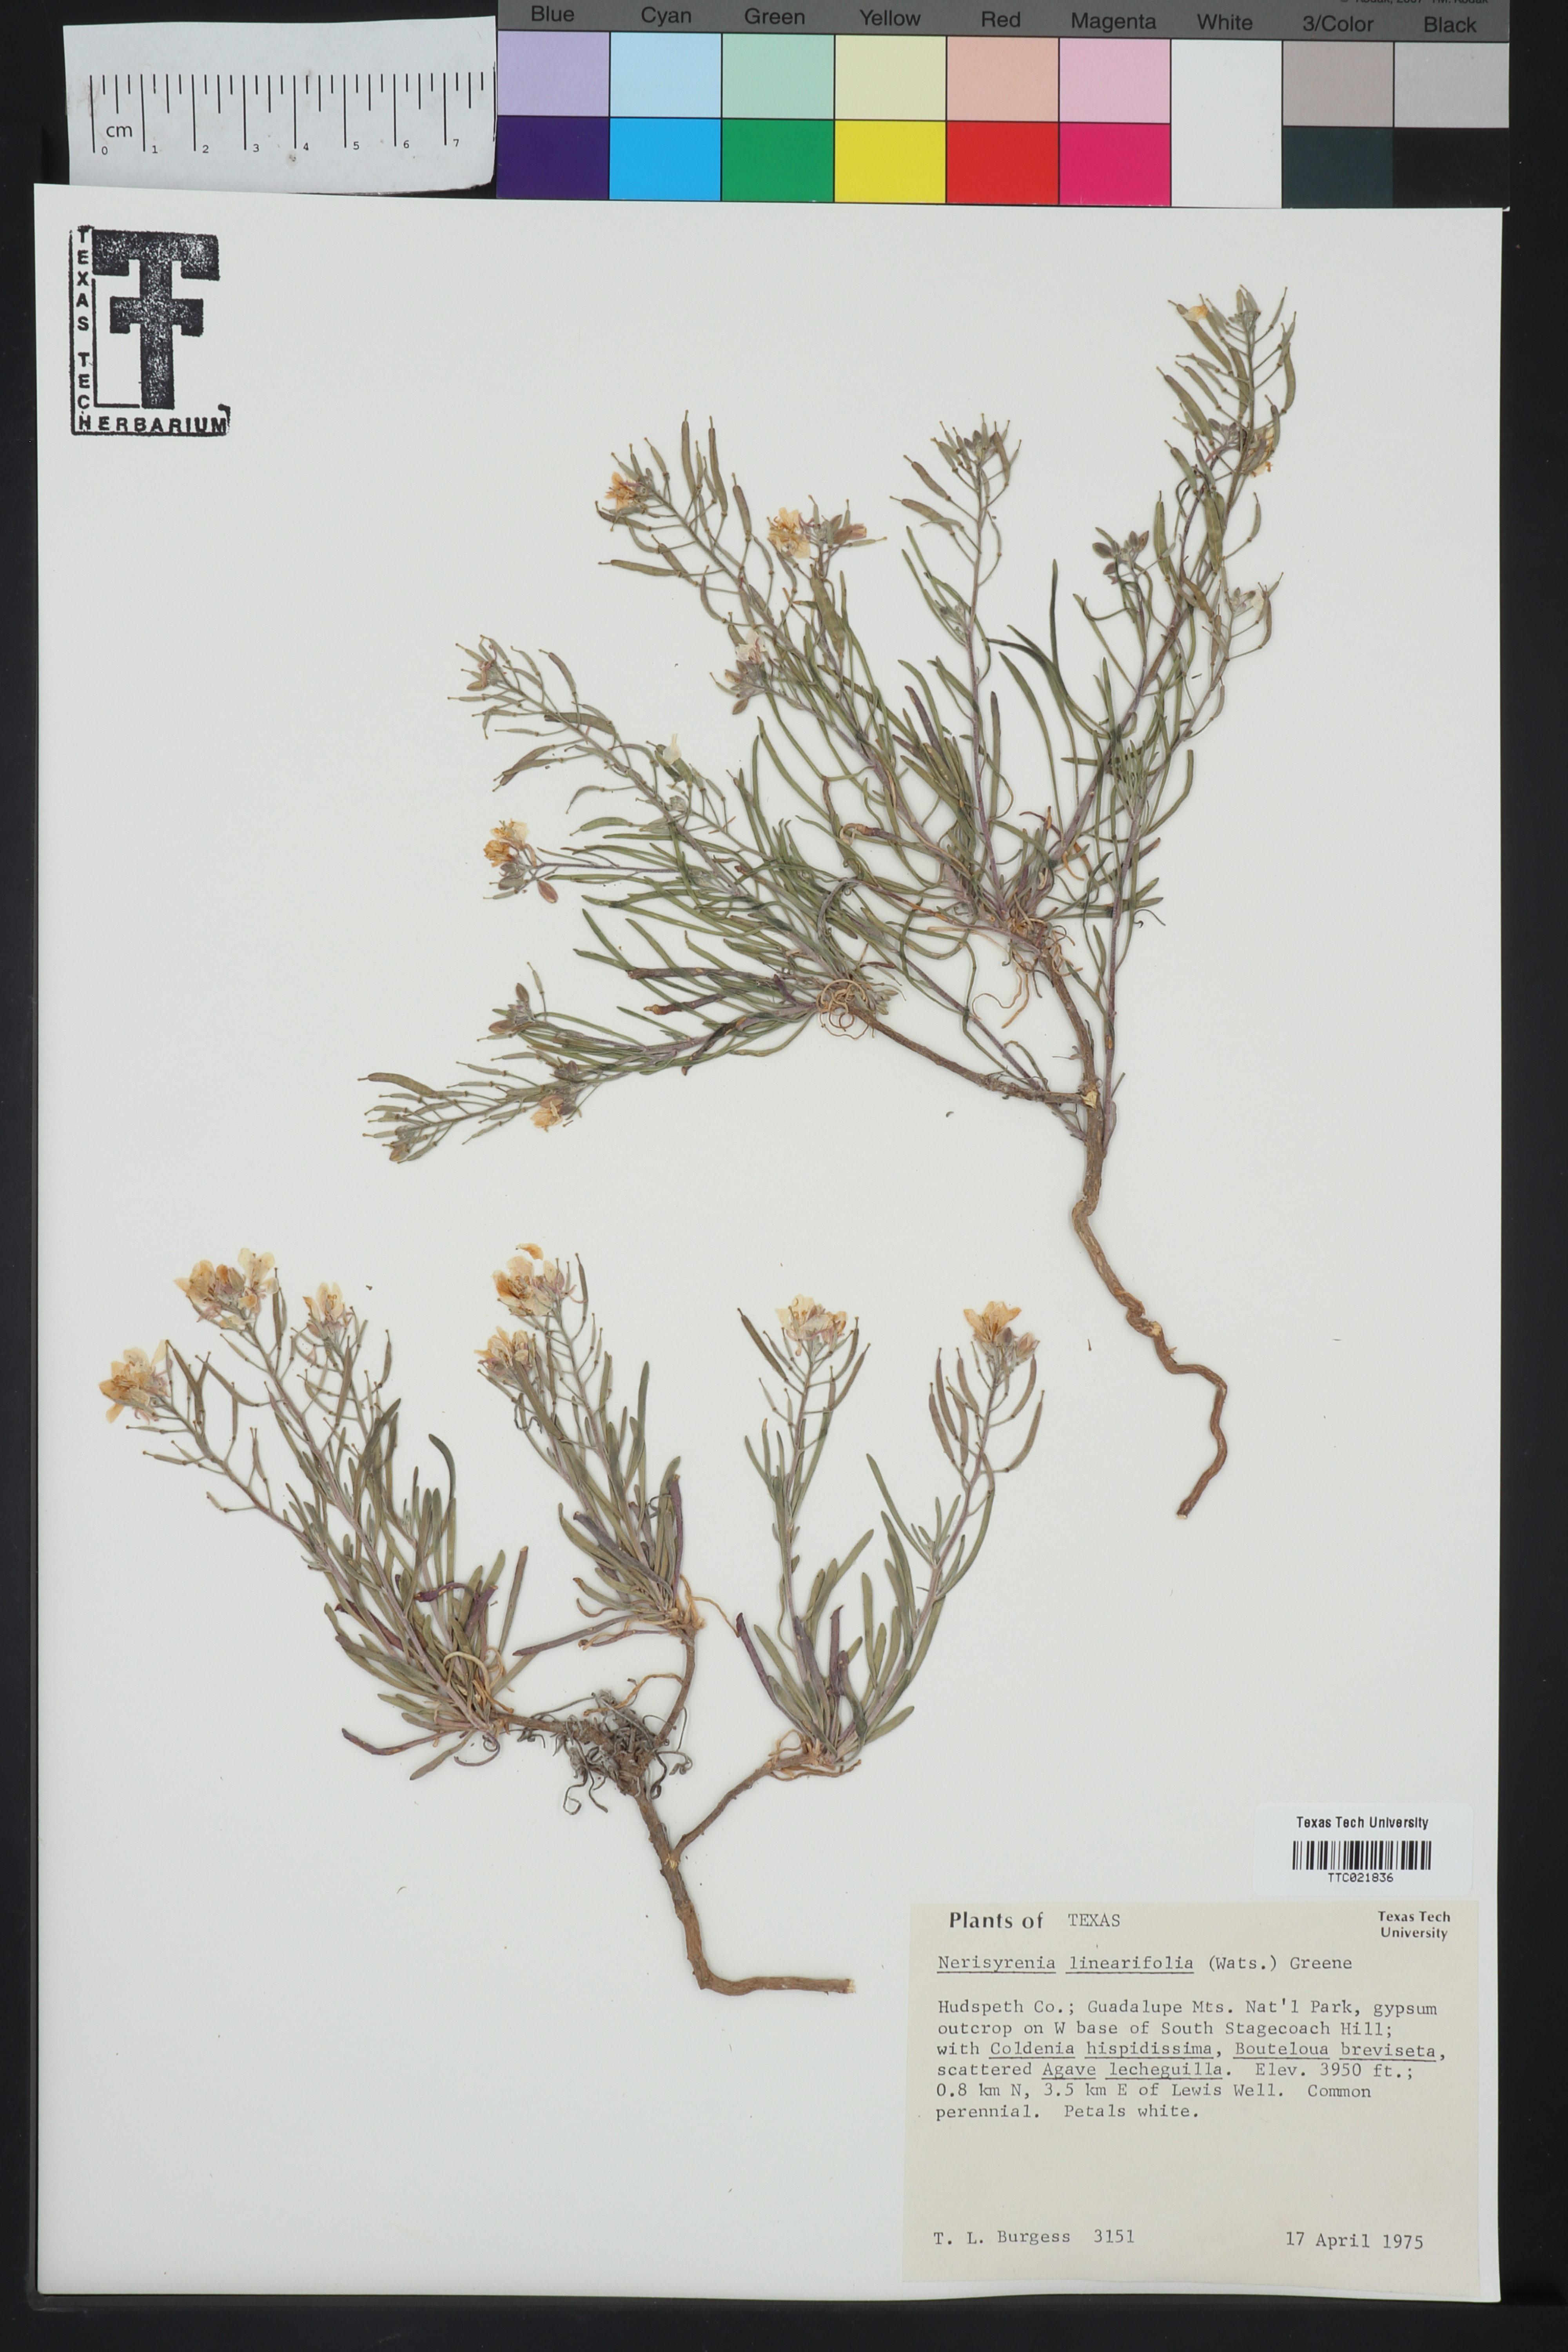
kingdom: Plantae
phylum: Tracheophyta
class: Magnoliopsida
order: Brassicales
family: Brassicaceae
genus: Nerisyrenia
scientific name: Nerisyrenia linearifolia
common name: White sands fan mustard
